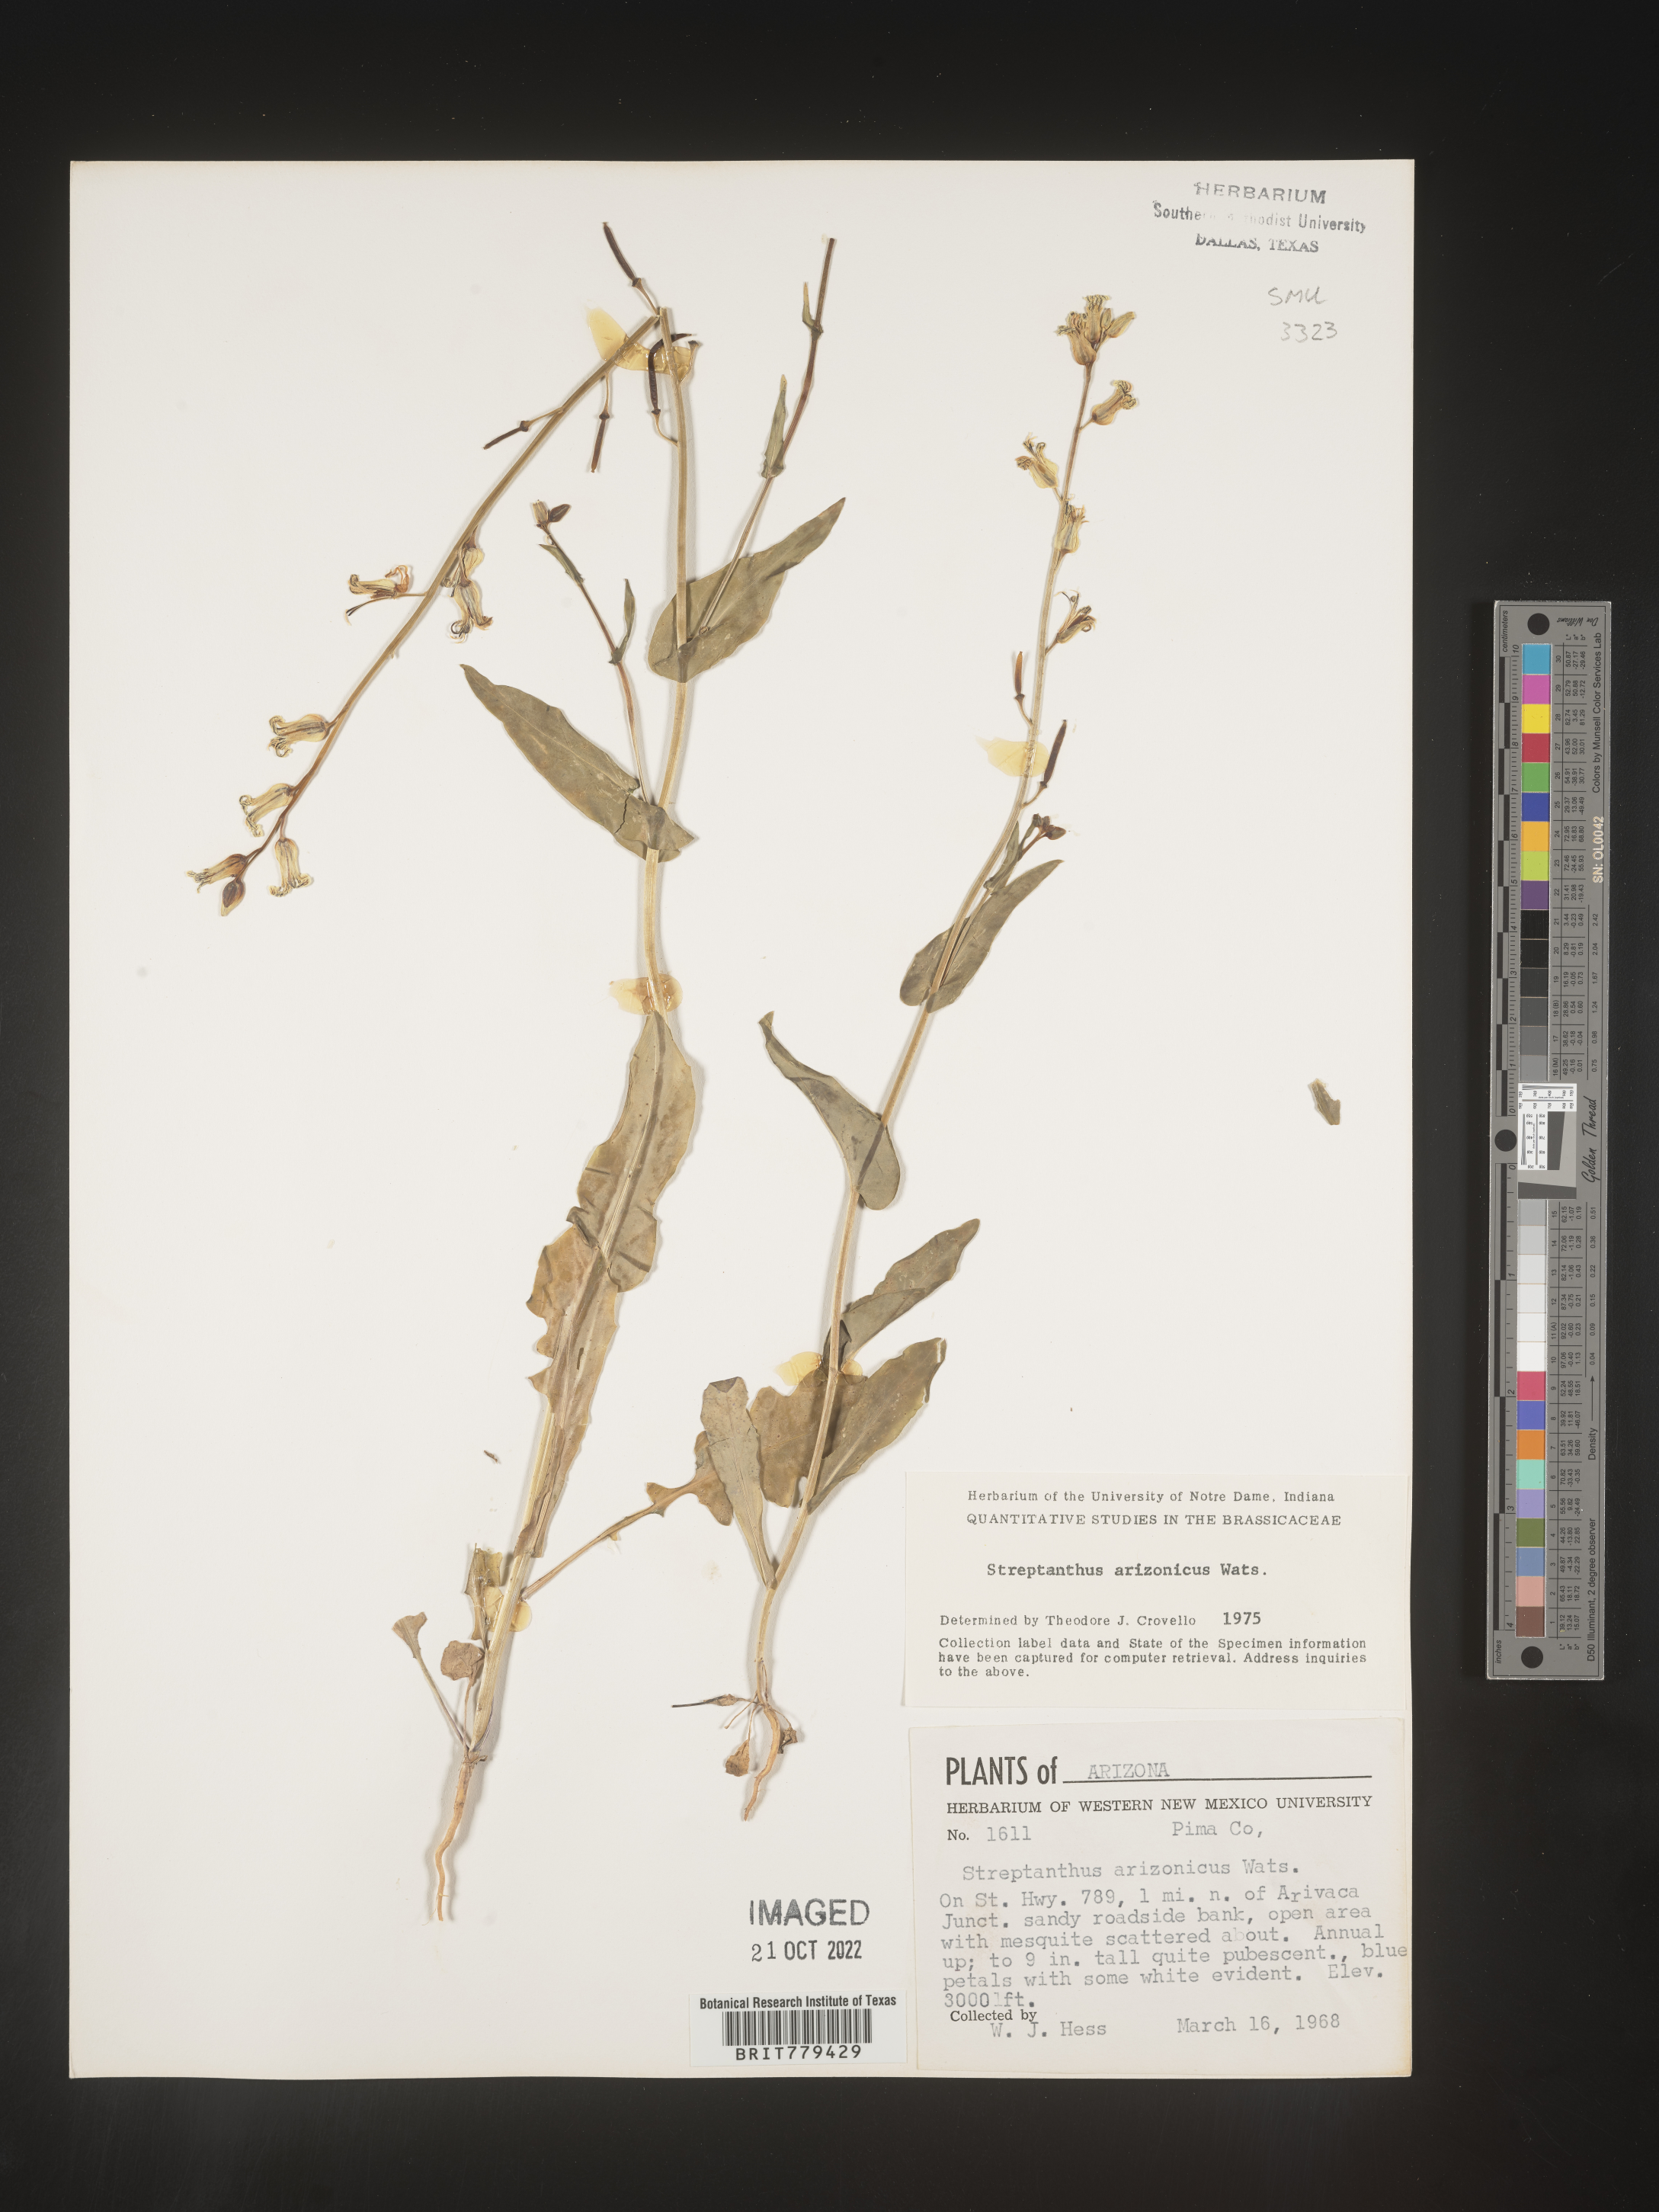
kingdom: Plantae
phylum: Tracheophyta
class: Magnoliopsida
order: Brassicales
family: Brassicaceae
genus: Streptanthus
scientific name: Streptanthus
